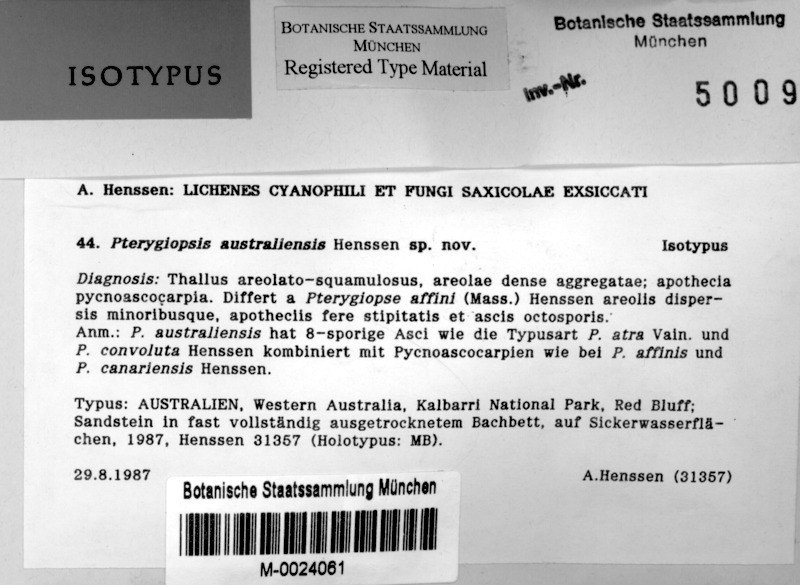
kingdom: Fungi
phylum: Ascomycota
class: Lichinomycetes
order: Lichinales
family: Lichinaceae
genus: Pterygiopsis
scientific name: Pterygiopsis australiensis
